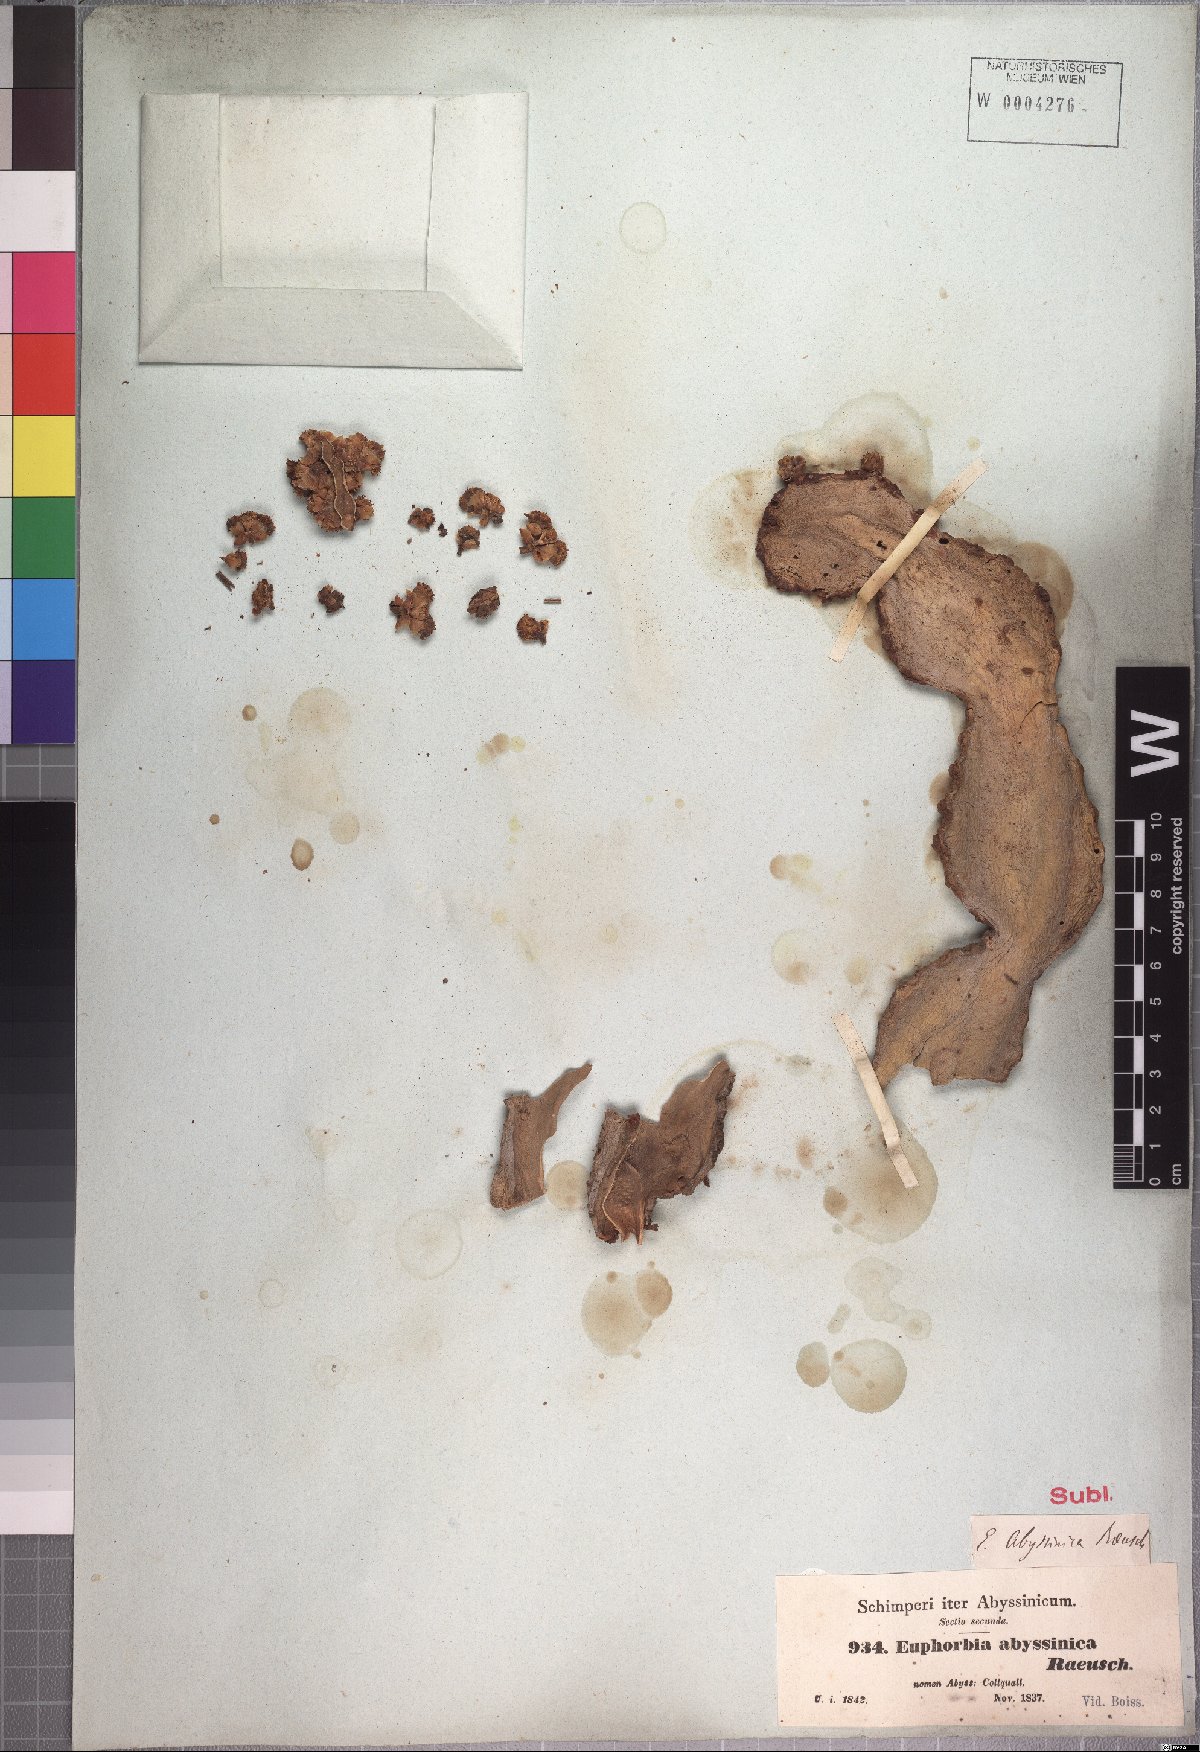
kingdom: Plantae
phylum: Tracheophyta
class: Magnoliopsida
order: Malpighiales
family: Euphorbiaceae
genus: Euphorbia
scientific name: Euphorbia abyssinica
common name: Abyssinian spurge
